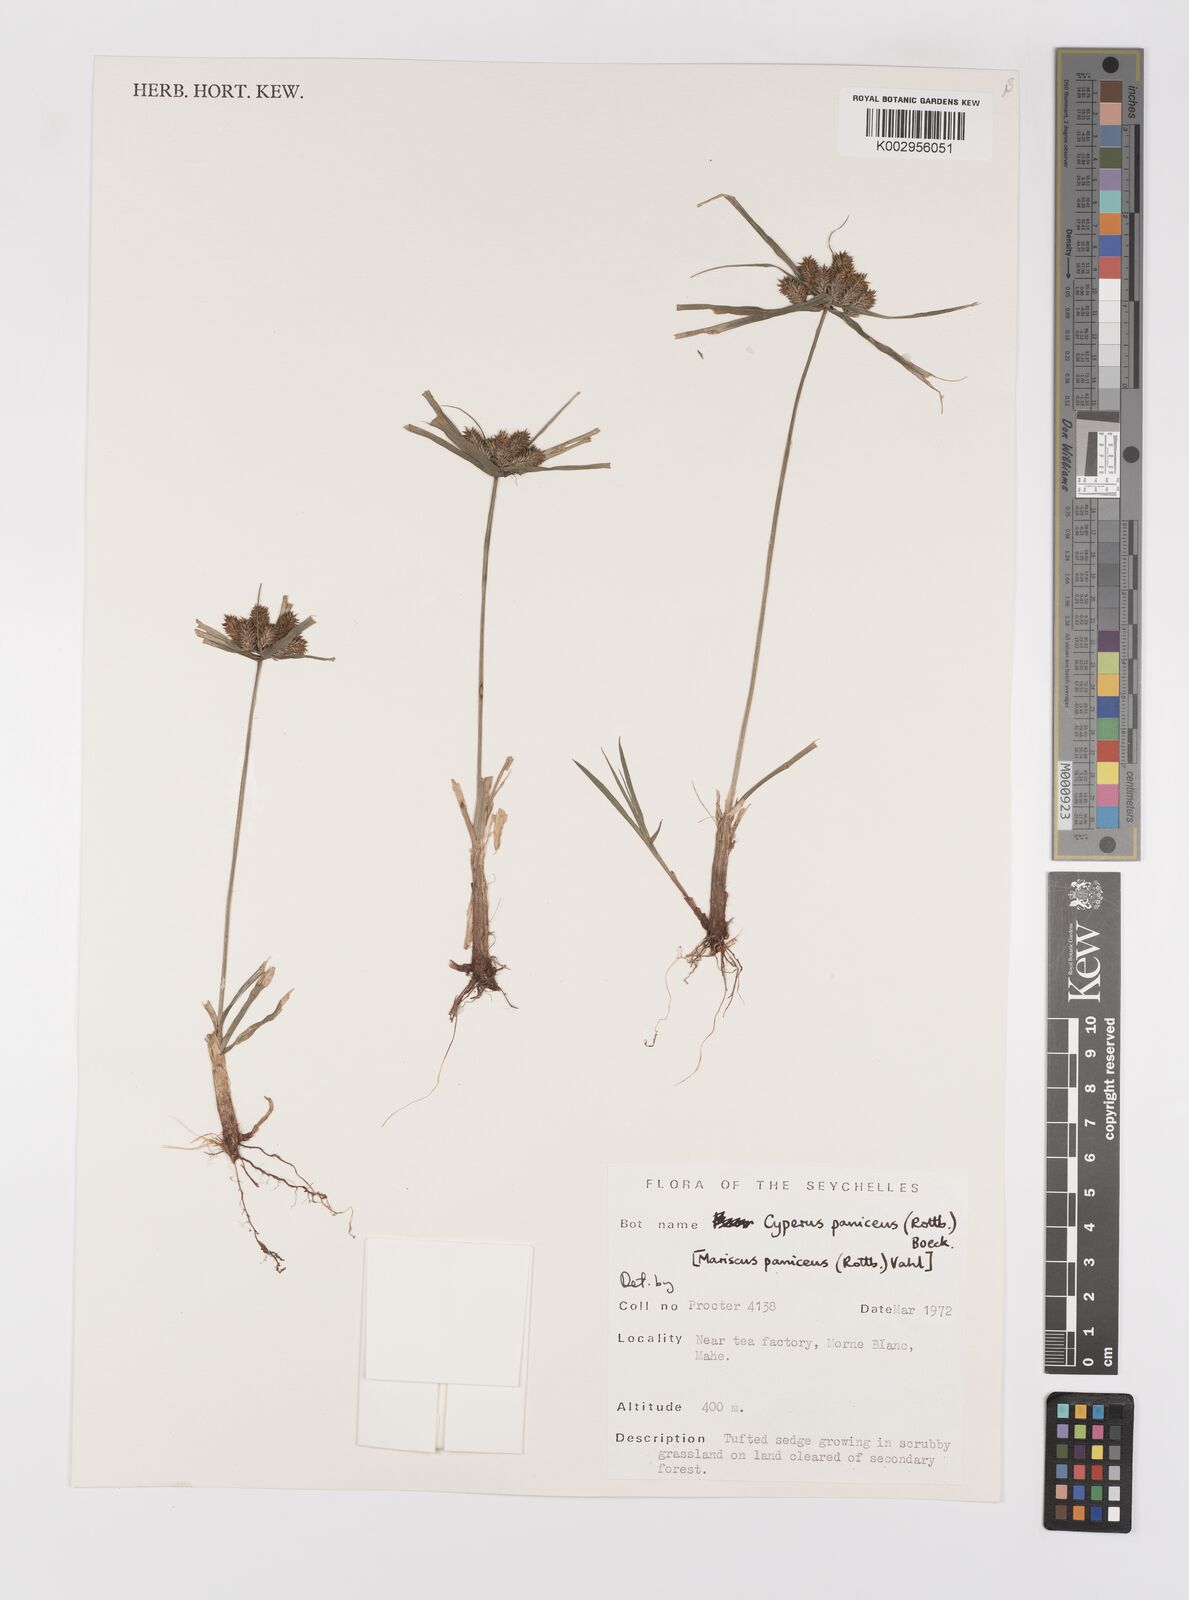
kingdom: Plantae
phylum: Tracheophyta
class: Liliopsida
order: Poales
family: Cyperaceae
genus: Cyperus
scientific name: Cyperus paniceus
